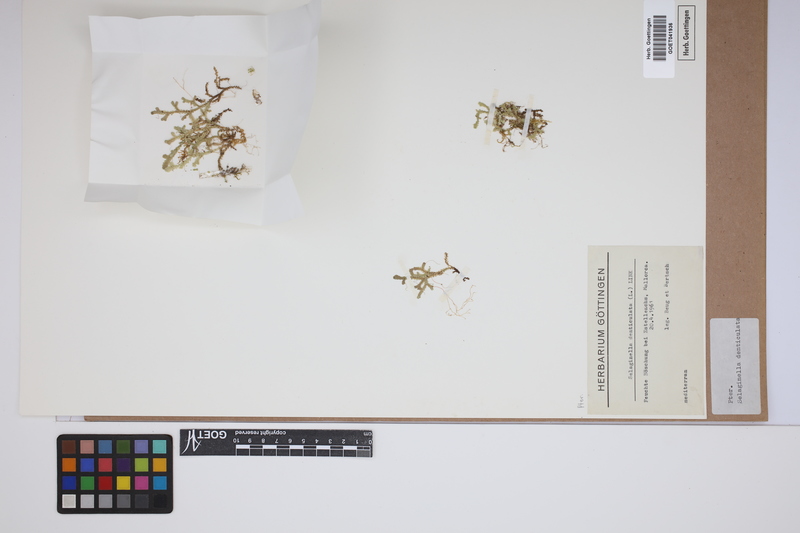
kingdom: Plantae
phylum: Tracheophyta
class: Lycopodiopsida
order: Selaginellales
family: Selaginellaceae
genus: Selaginella
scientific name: Selaginella denticulata
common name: Toothed-leaved clubmoss
